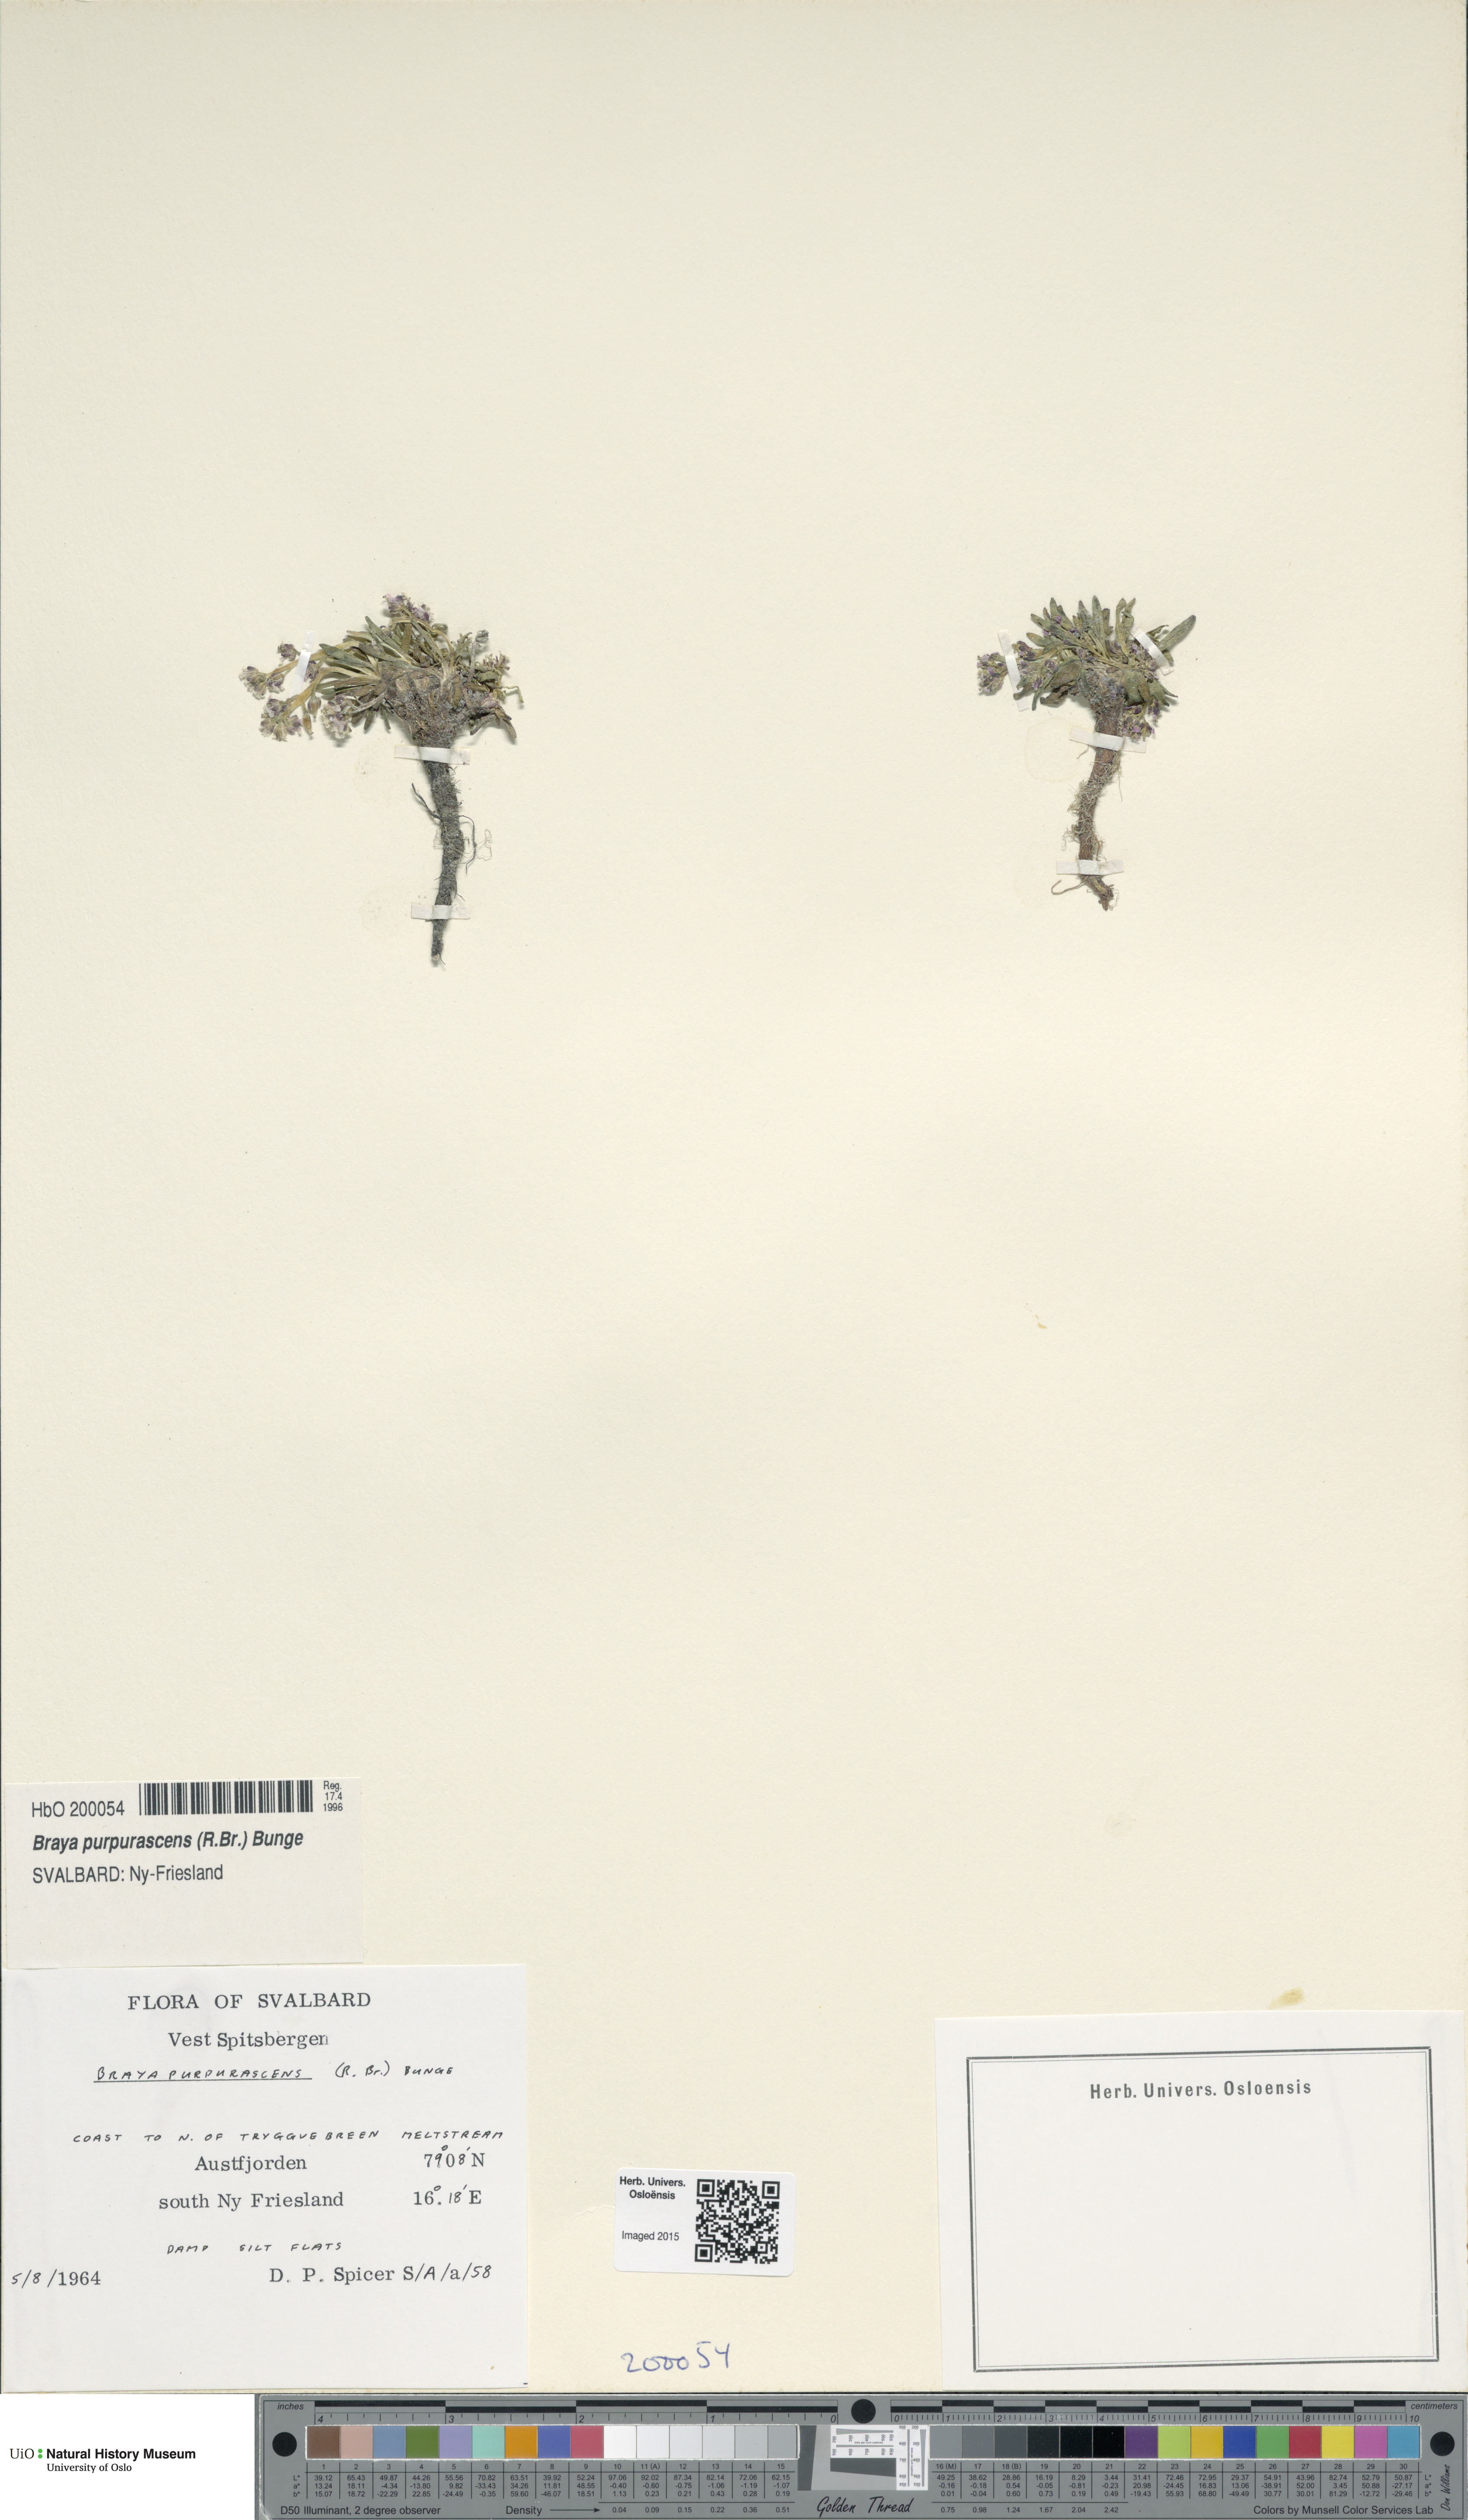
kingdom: Plantae
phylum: Tracheophyta
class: Magnoliopsida
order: Brassicales
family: Brassicaceae
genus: Braya
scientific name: Braya purpurascens
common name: Alpine braya
